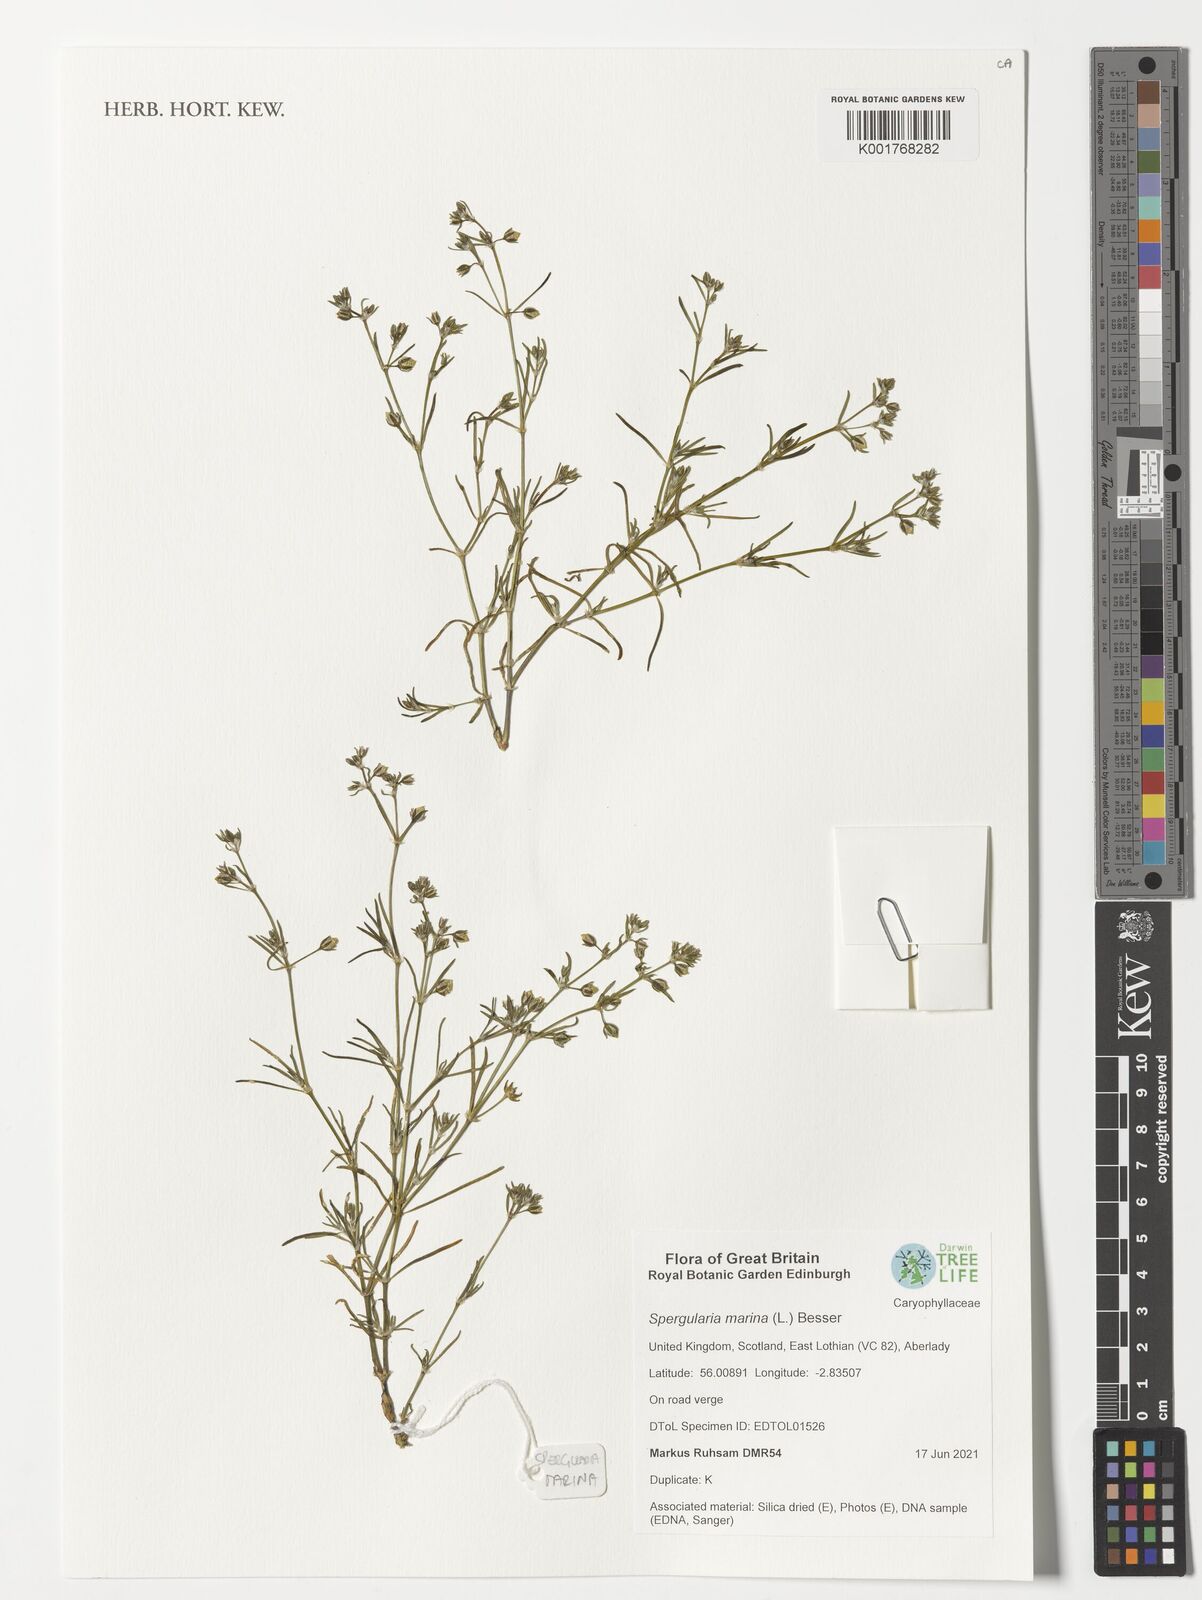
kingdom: Plantae
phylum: Tracheophyta
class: Magnoliopsida
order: Caryophyllales
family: Caryophyllaceae
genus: Spergularia
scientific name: Spergularia marina
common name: Lesser sea-spurrey
